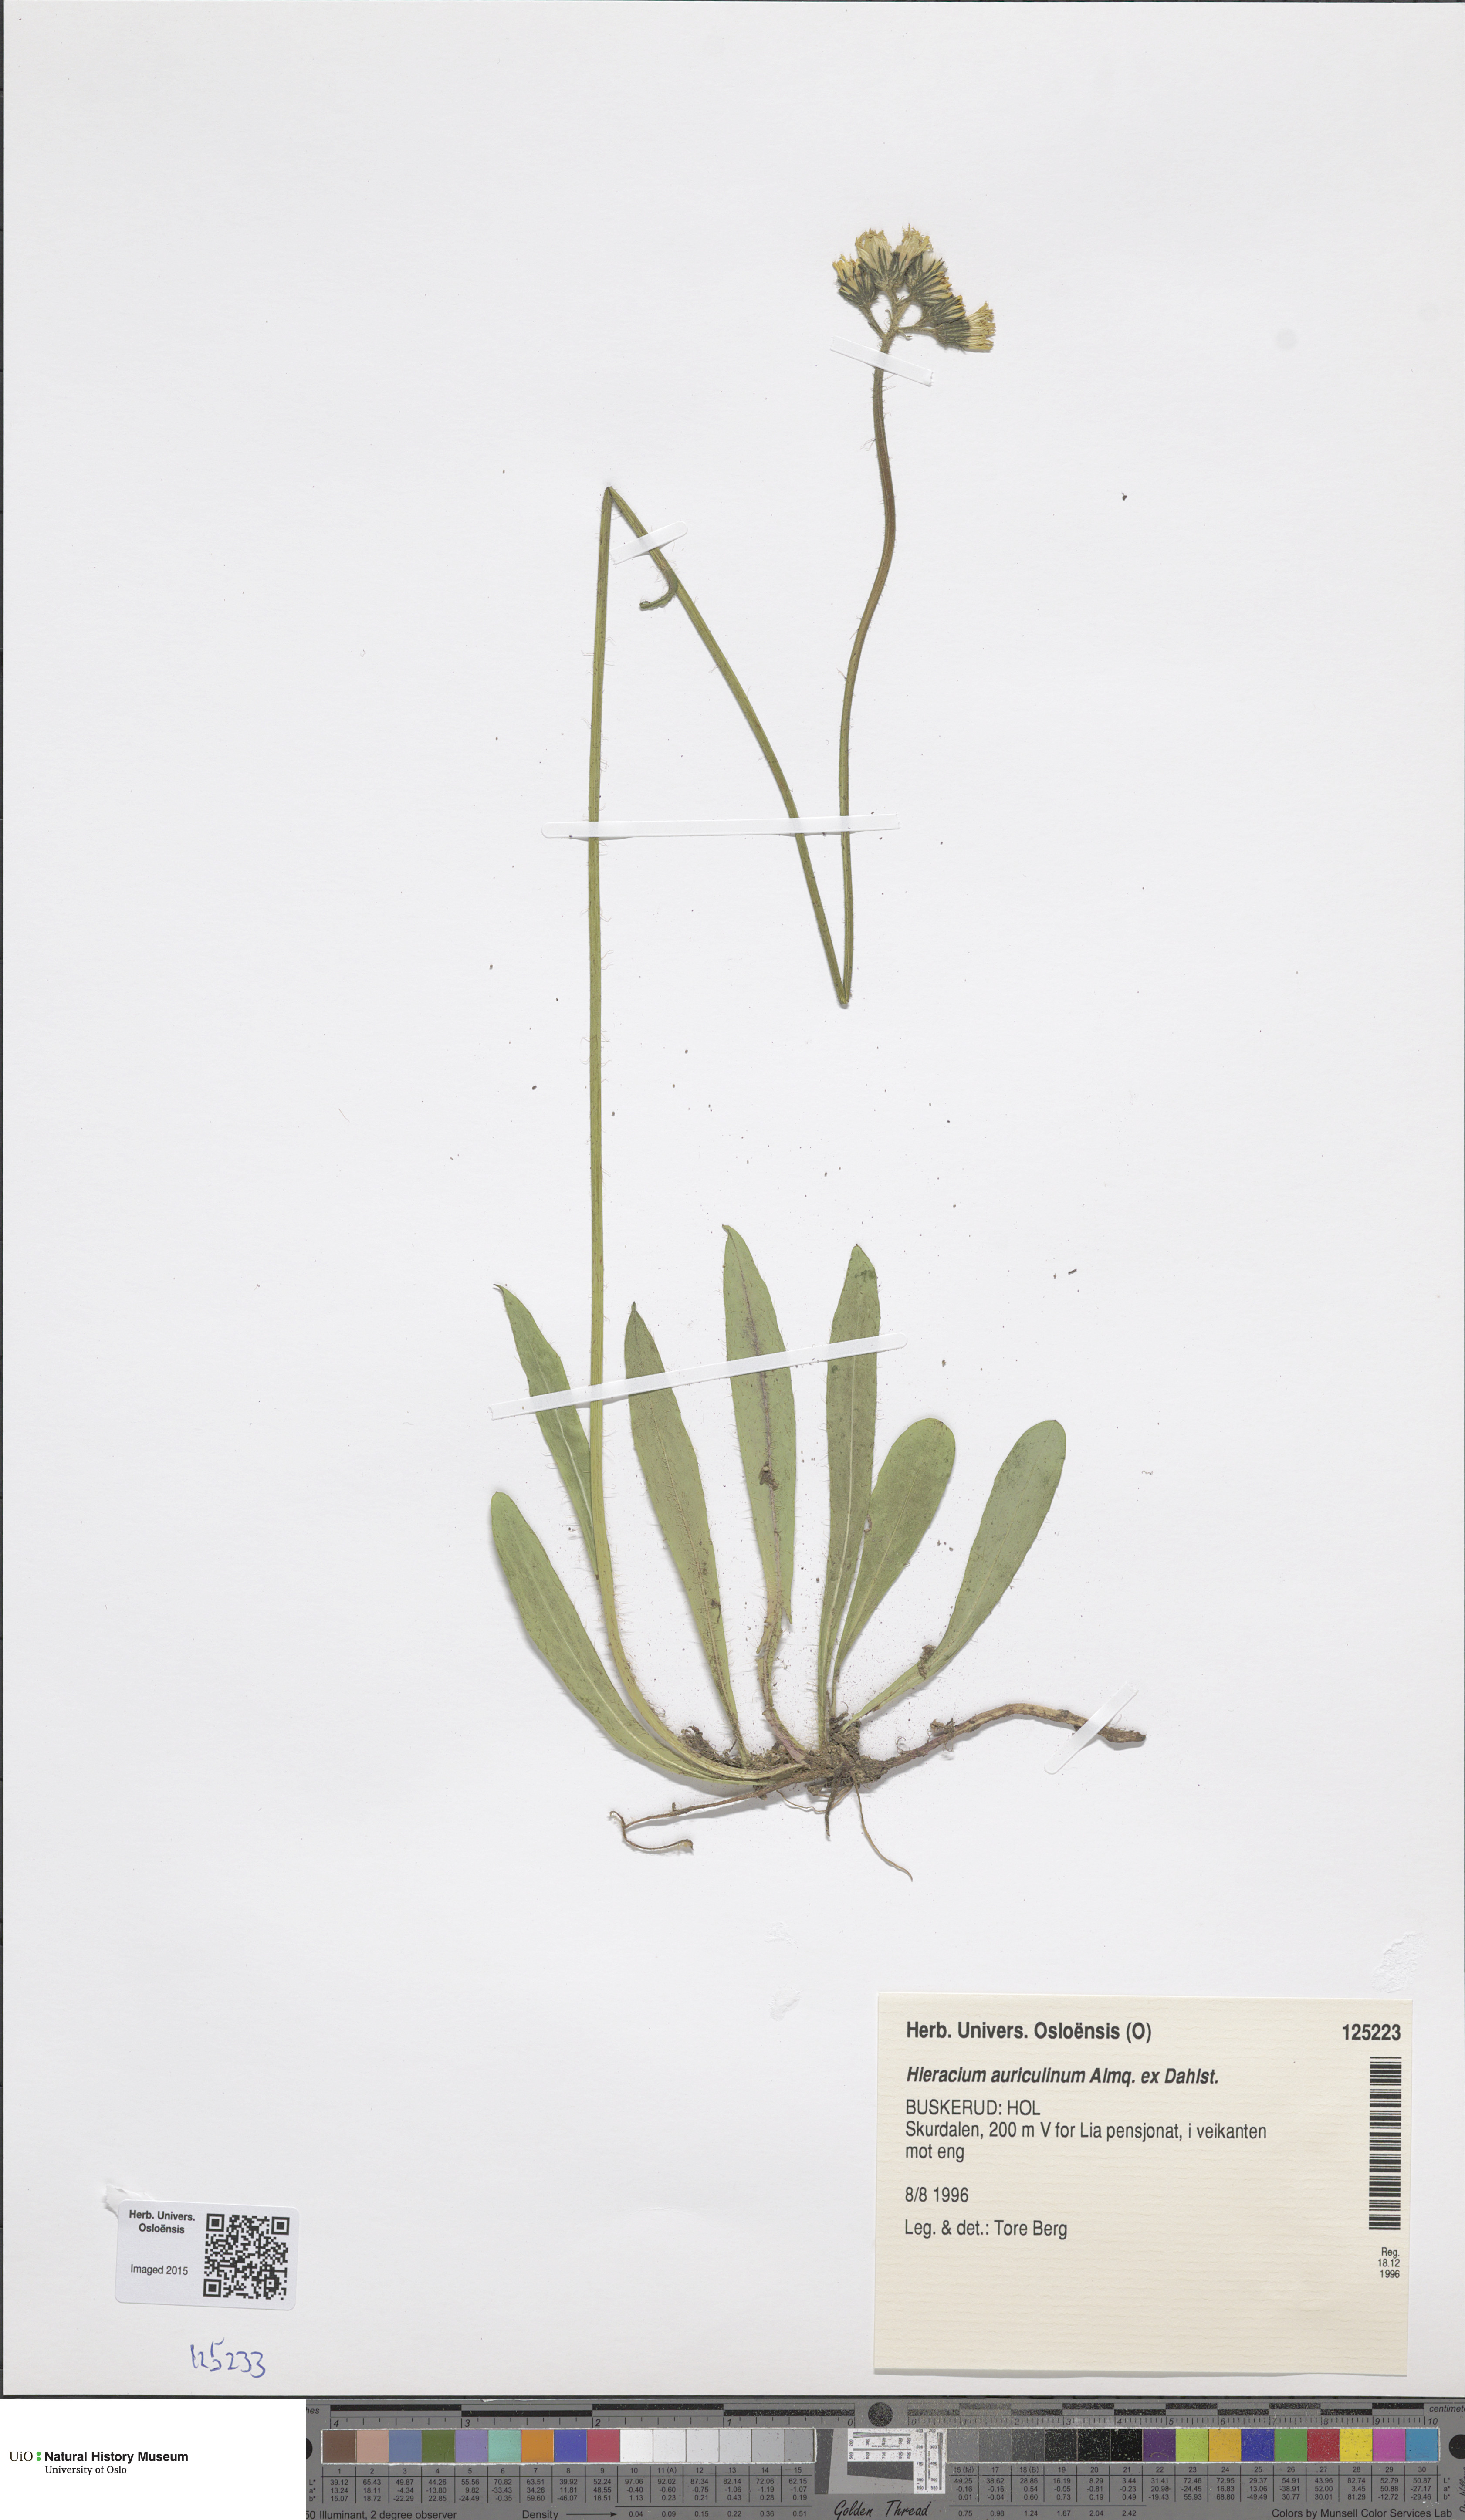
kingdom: Plantae
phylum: Tracheophyta
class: Magnoliopsida
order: Asterales
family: Asteraceae
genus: Pilosella
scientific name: Pilosella dubia
